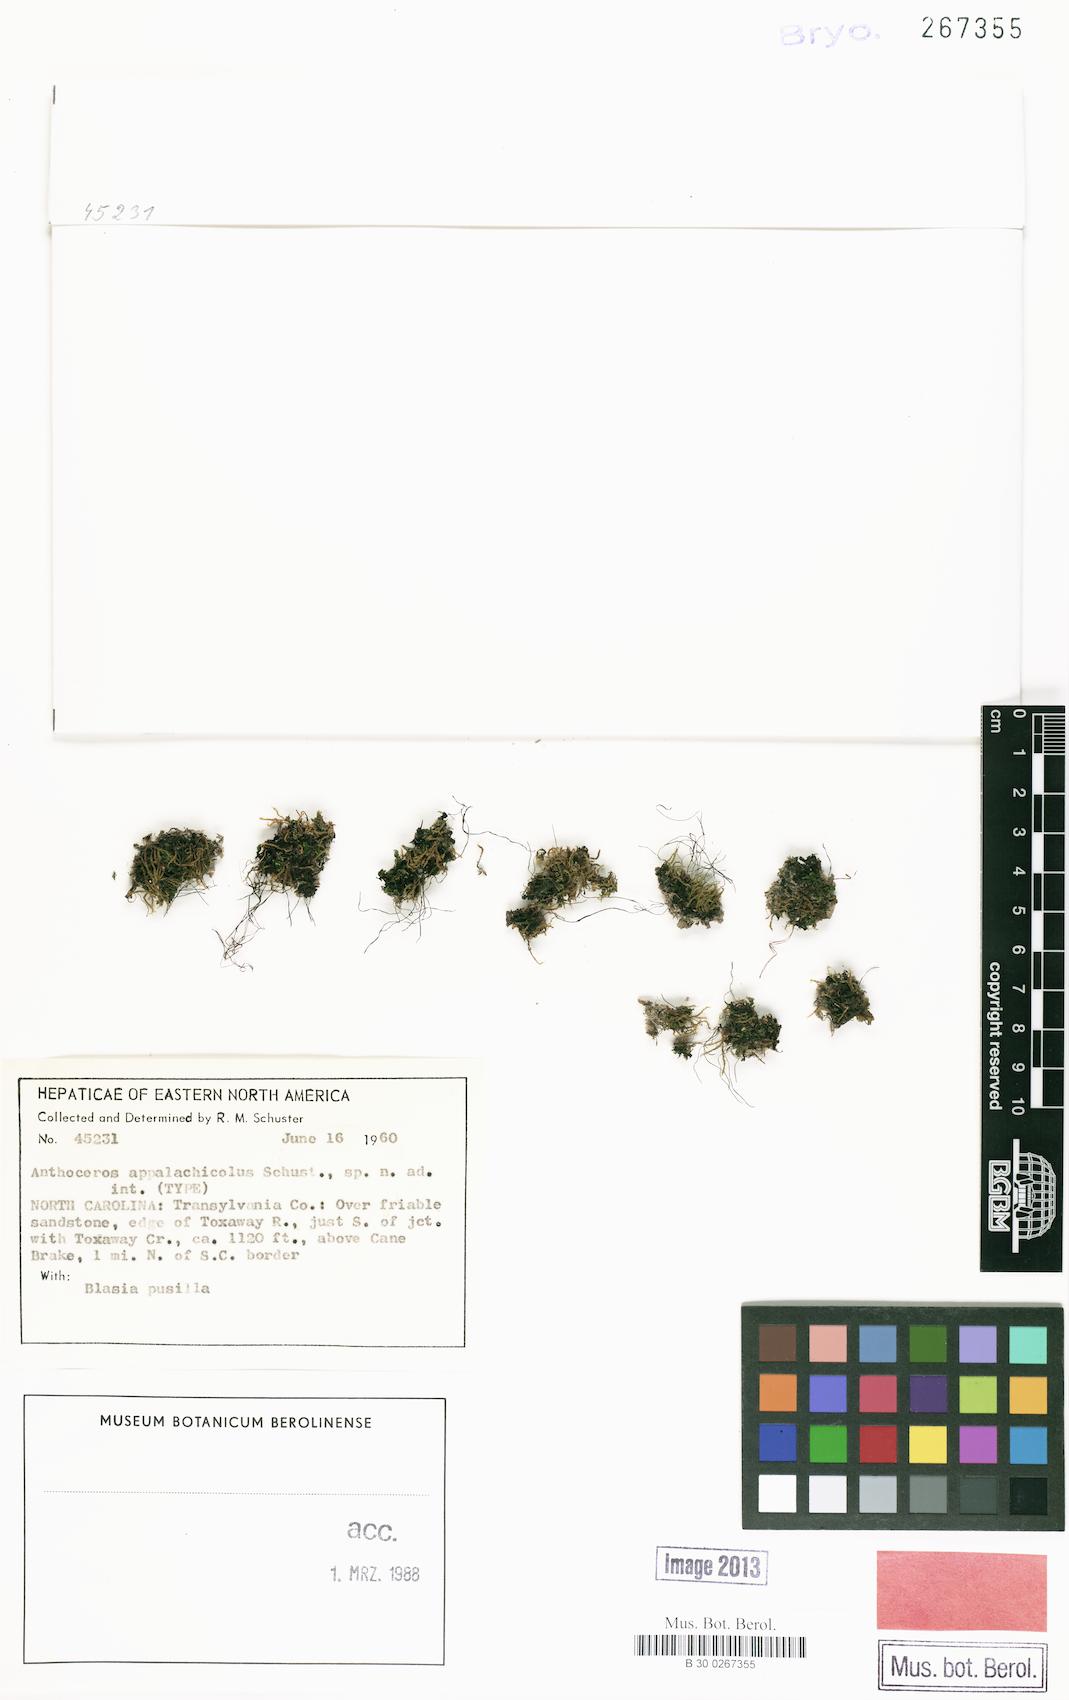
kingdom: Plantae
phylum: Anthocerotophyta
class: Anthocerotopsida
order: Anthocerotales
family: Anthocerotaceae
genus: Anthoceros
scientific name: Anthoceros
